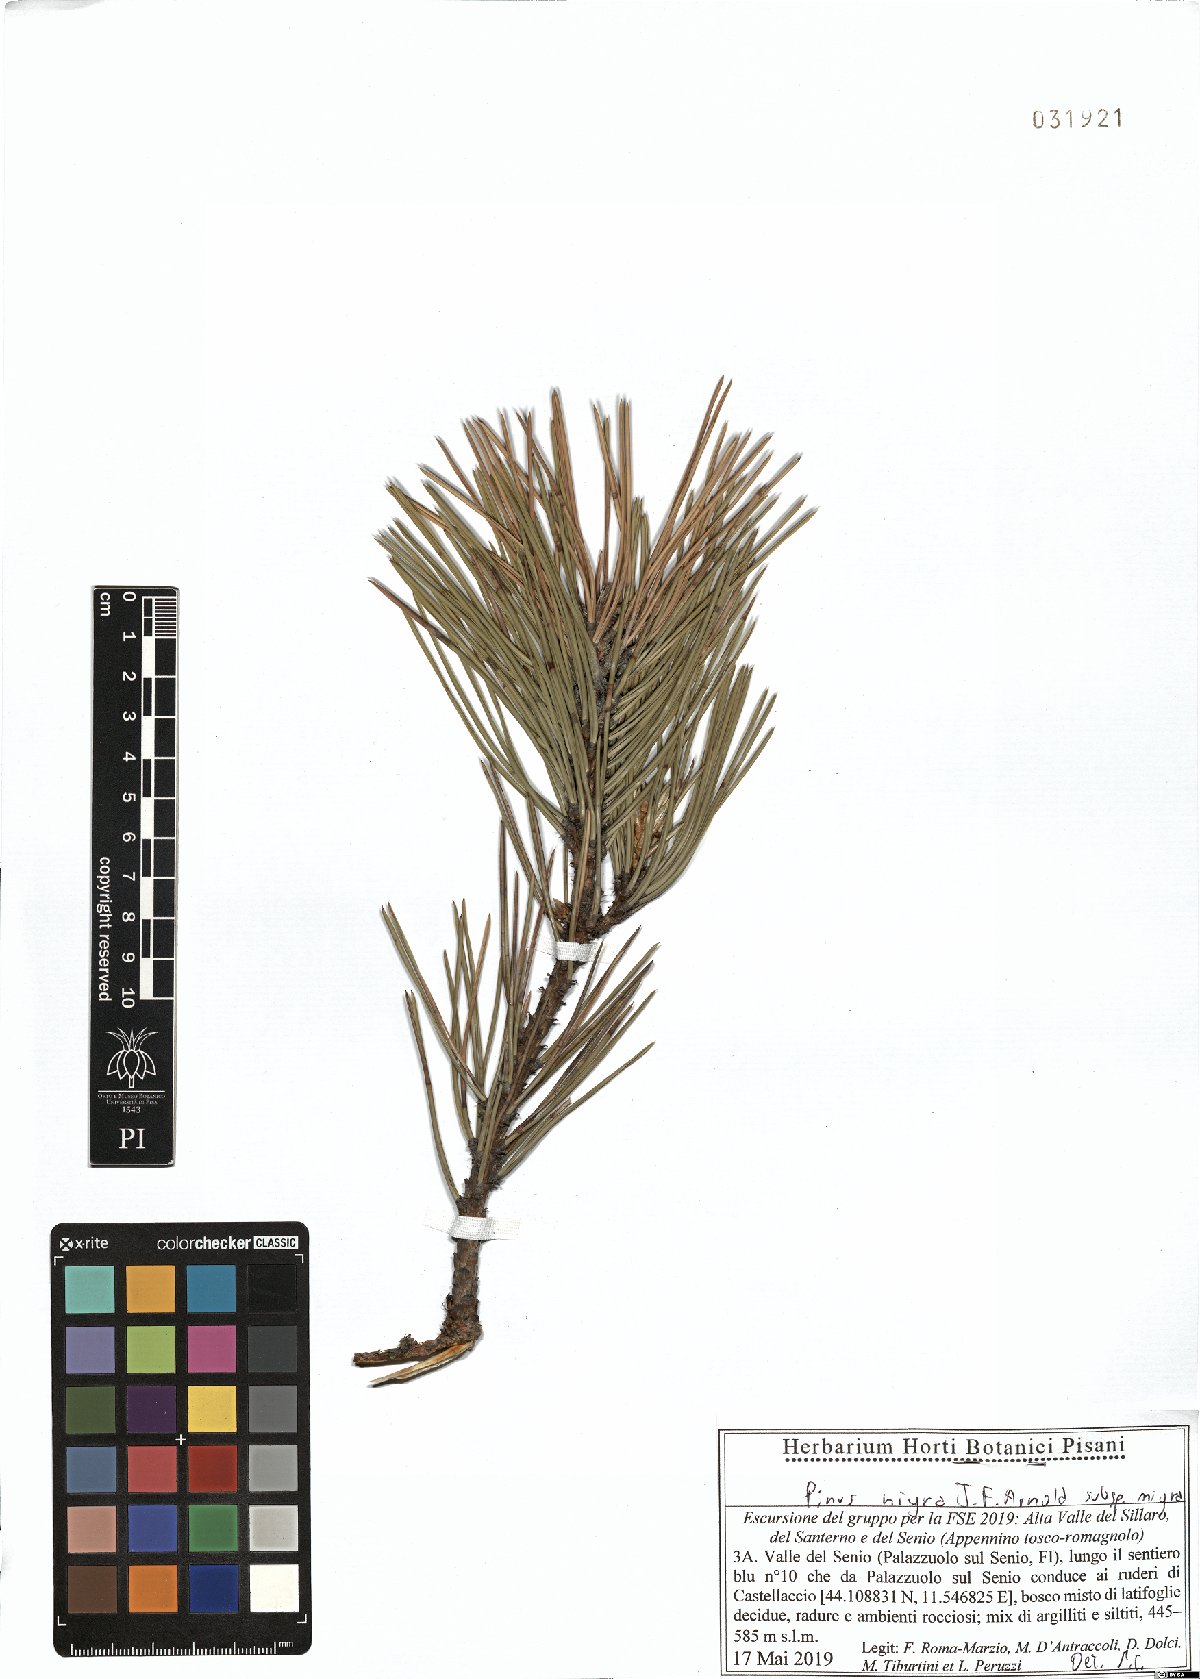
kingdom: Plantae
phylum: Tracheophyta
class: Pinopsida
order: Pinales
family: Pinaceae
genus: Pinus
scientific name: Pinus nigra
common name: Austrian pine
